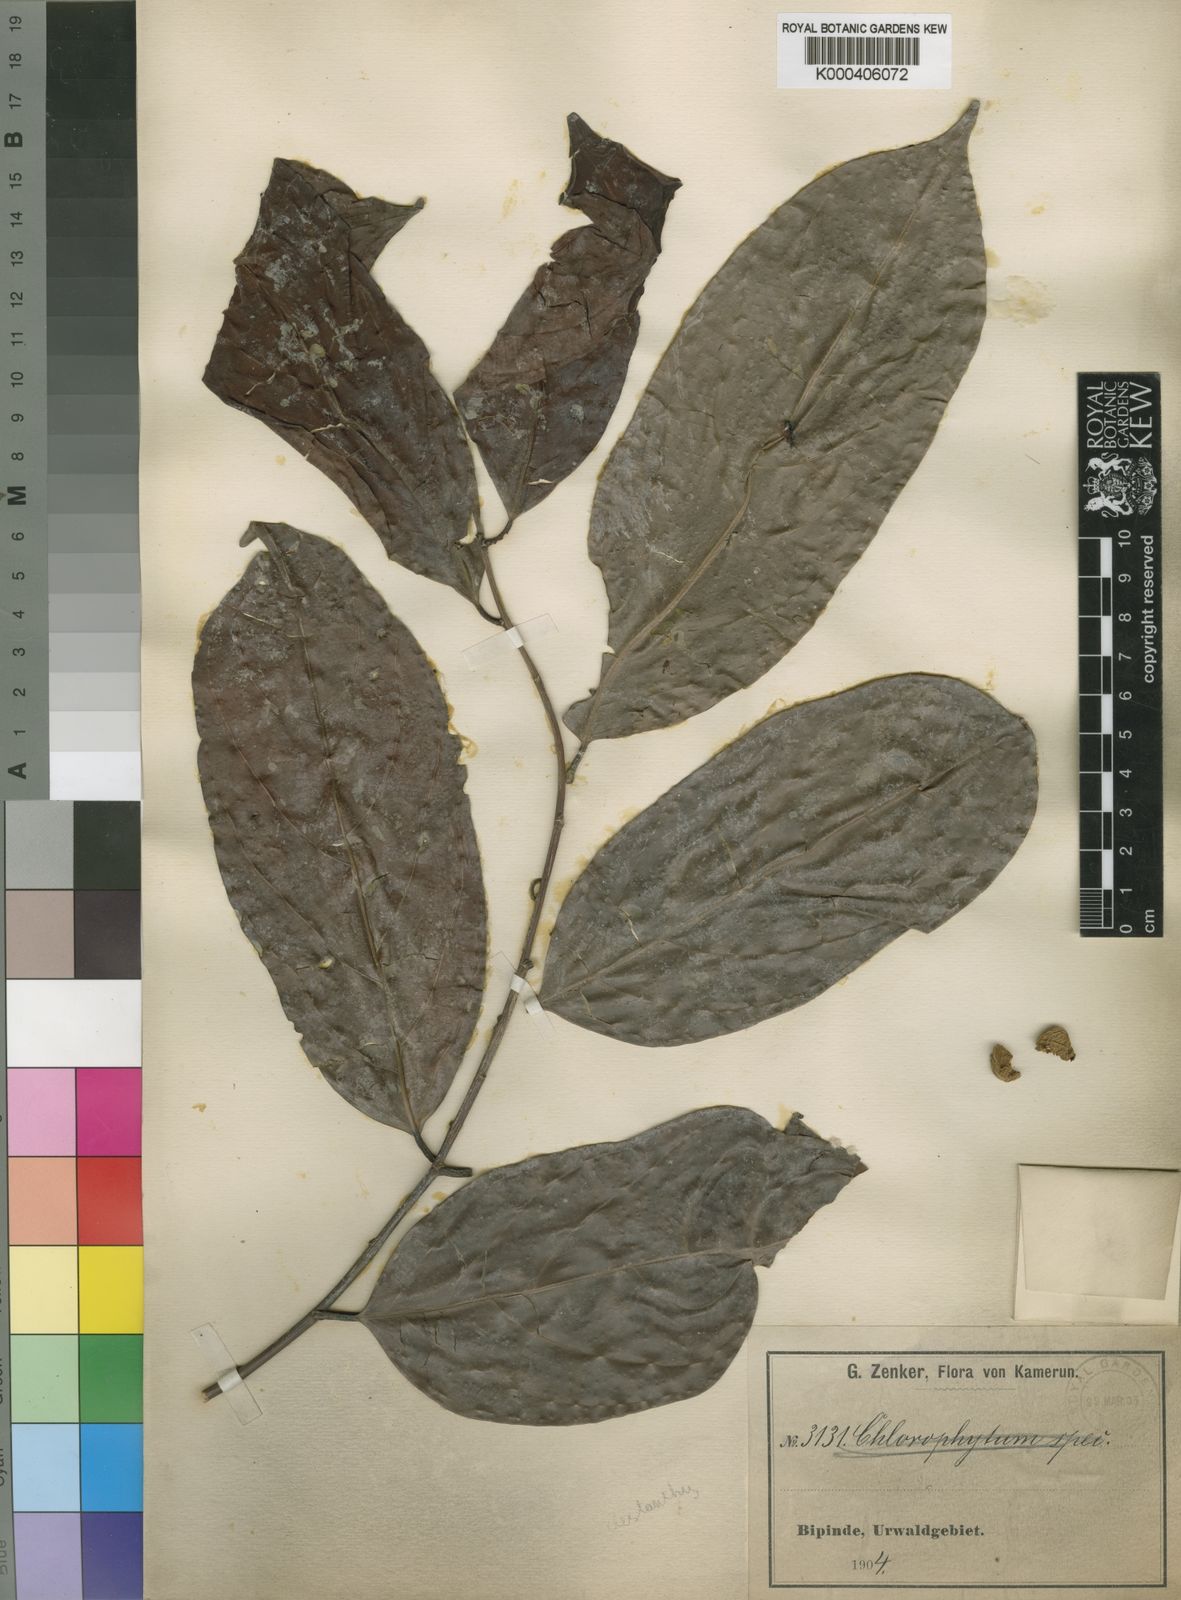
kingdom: Plantae
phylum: Tracheophyta
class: Magnoliopsida
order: Malpighiales
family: Phyllanthaceae
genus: Cleistanthus
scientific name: Cleistanthus zenkeri
